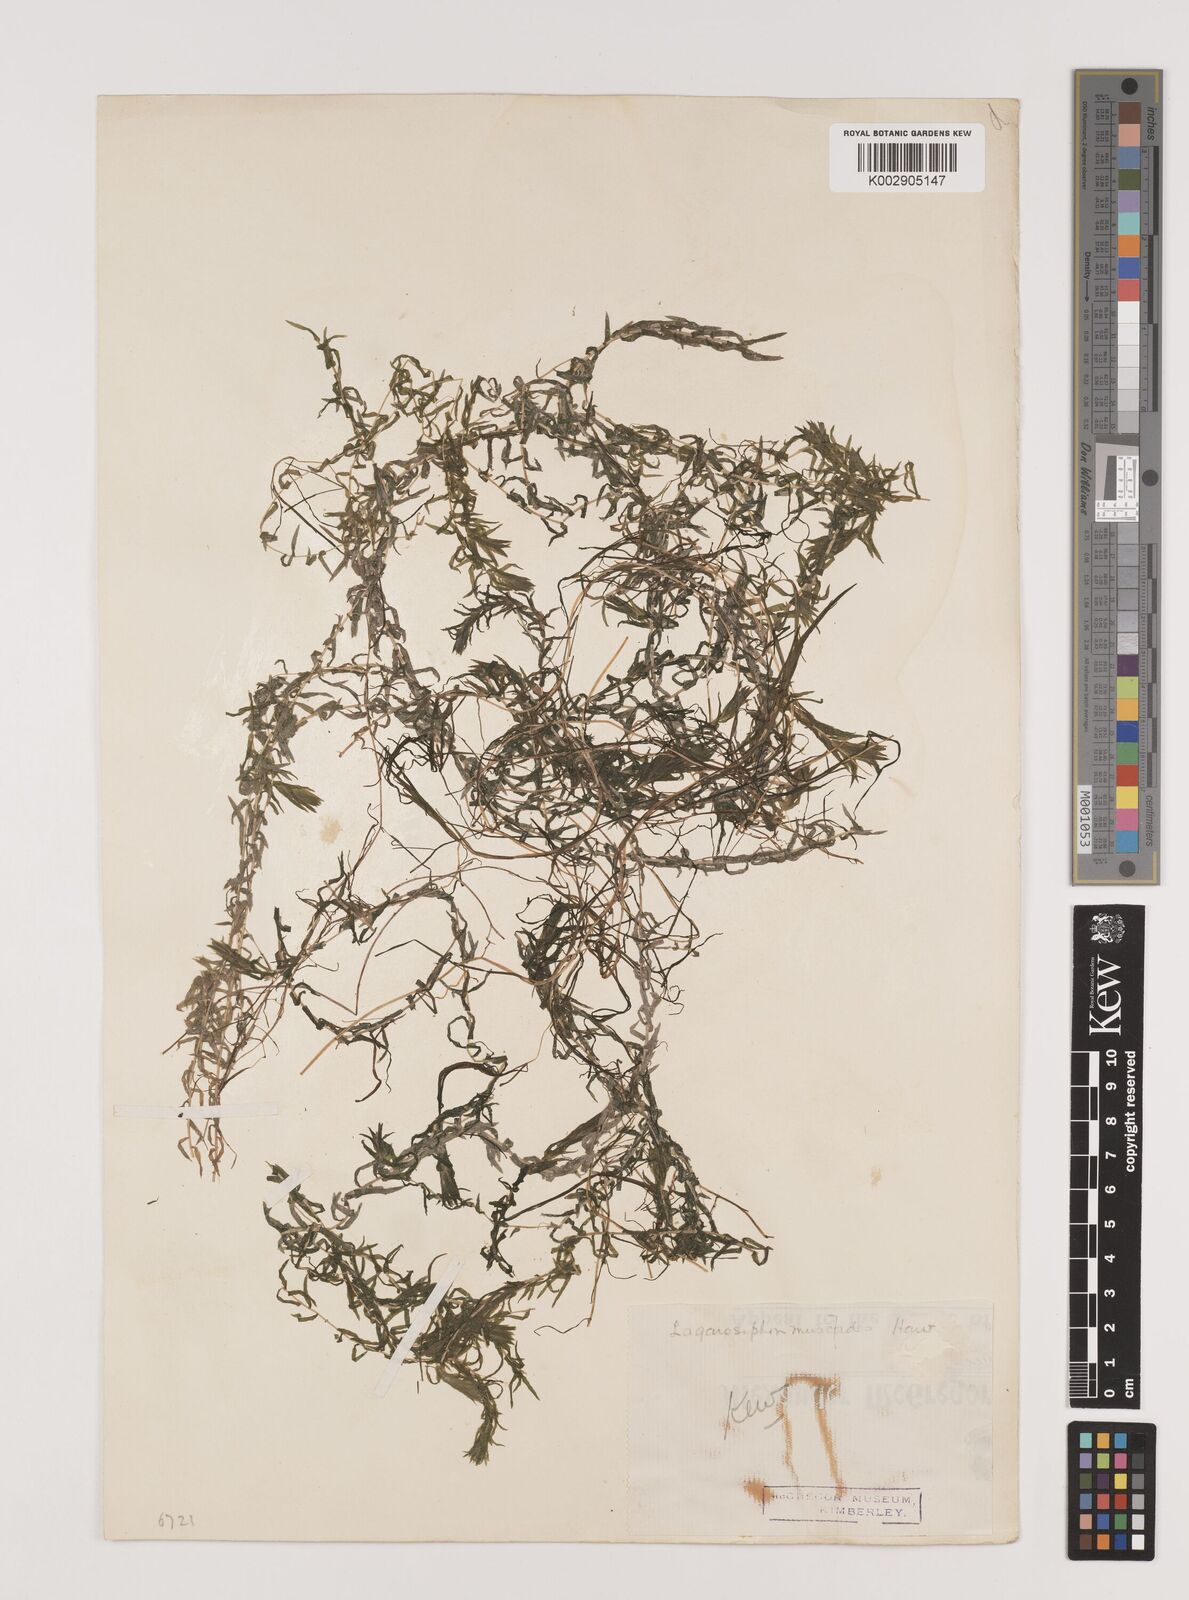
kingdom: Plantae
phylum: Tracheophyta
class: Liliopsida
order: Alismatales
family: Hydrocharitaceae
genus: Lagarosiphon
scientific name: Lagarosiphon muscoides
